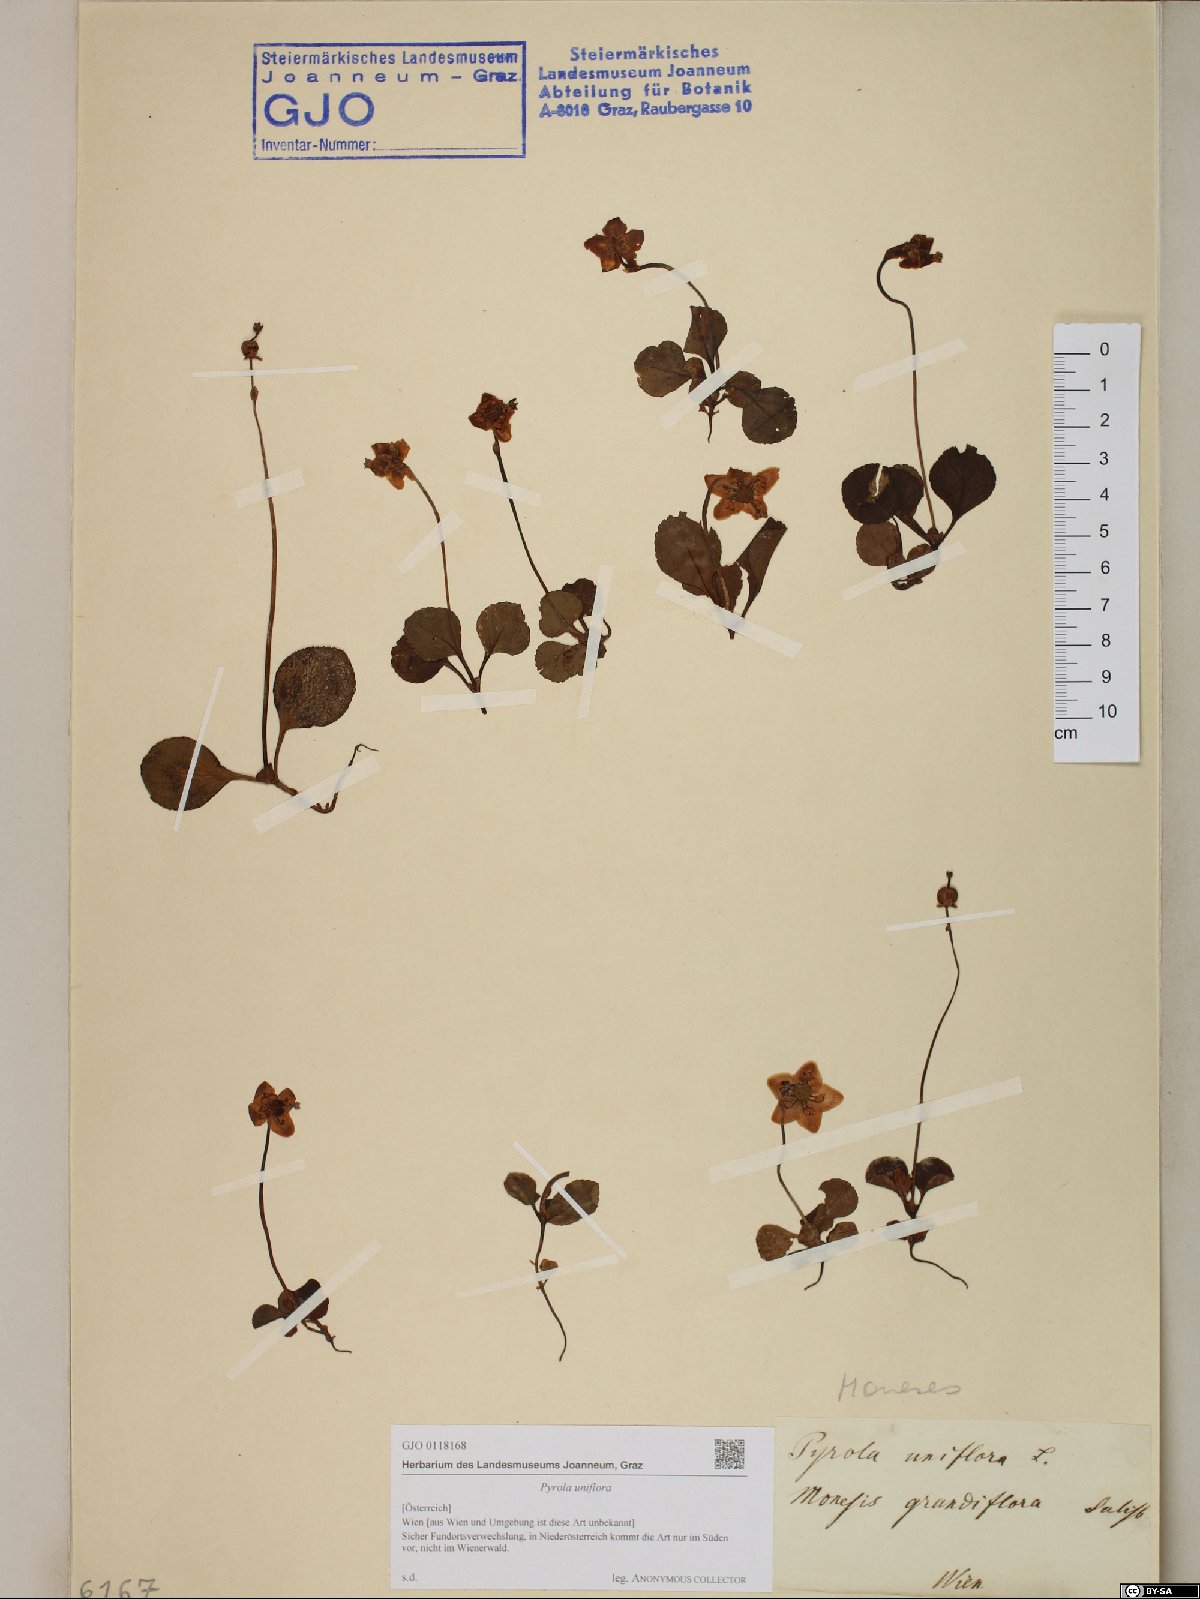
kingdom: Plantae
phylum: Tracheophyta
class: Magnoliopsida
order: Ericales
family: Ericaceae
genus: Moneses
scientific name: Moneses uniflora
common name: One-flowered wintergreen
